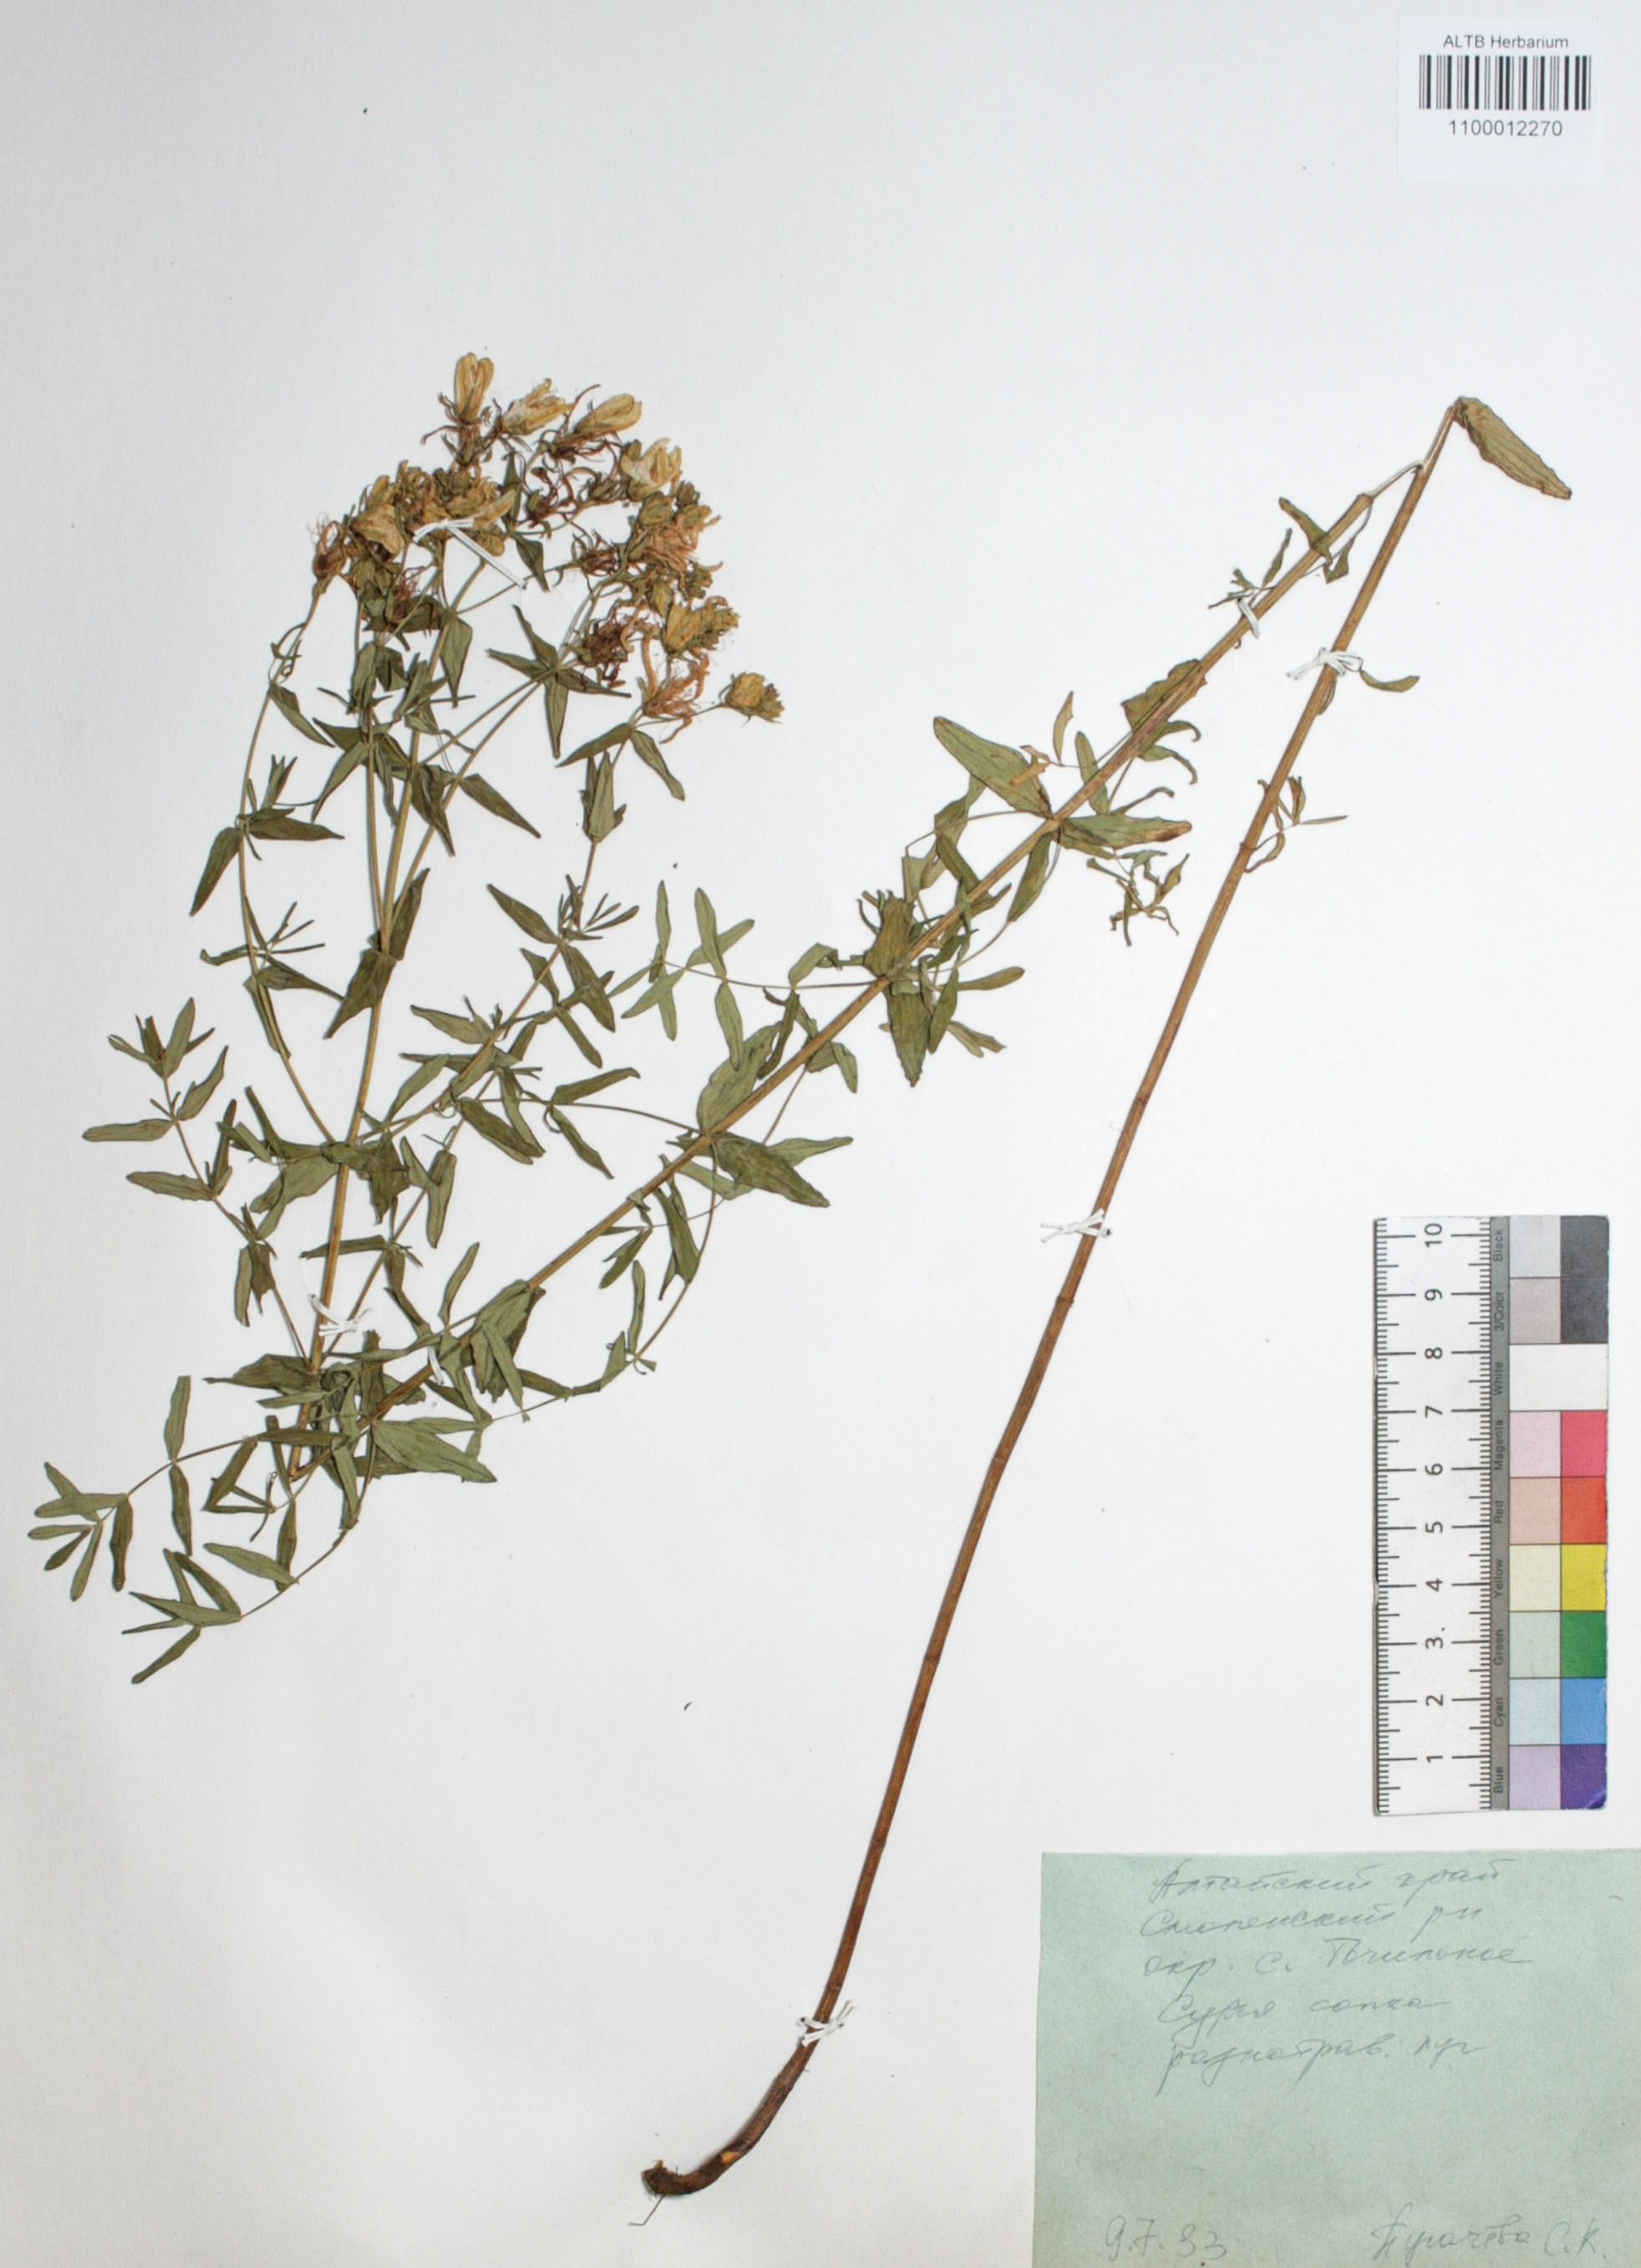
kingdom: Plantae
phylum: Tracheophyta
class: Magnoliopsida
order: Malpighiales
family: Hypericaceae
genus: Hypericum
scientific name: Hypericum ascyron
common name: Giant st. john's-wort
